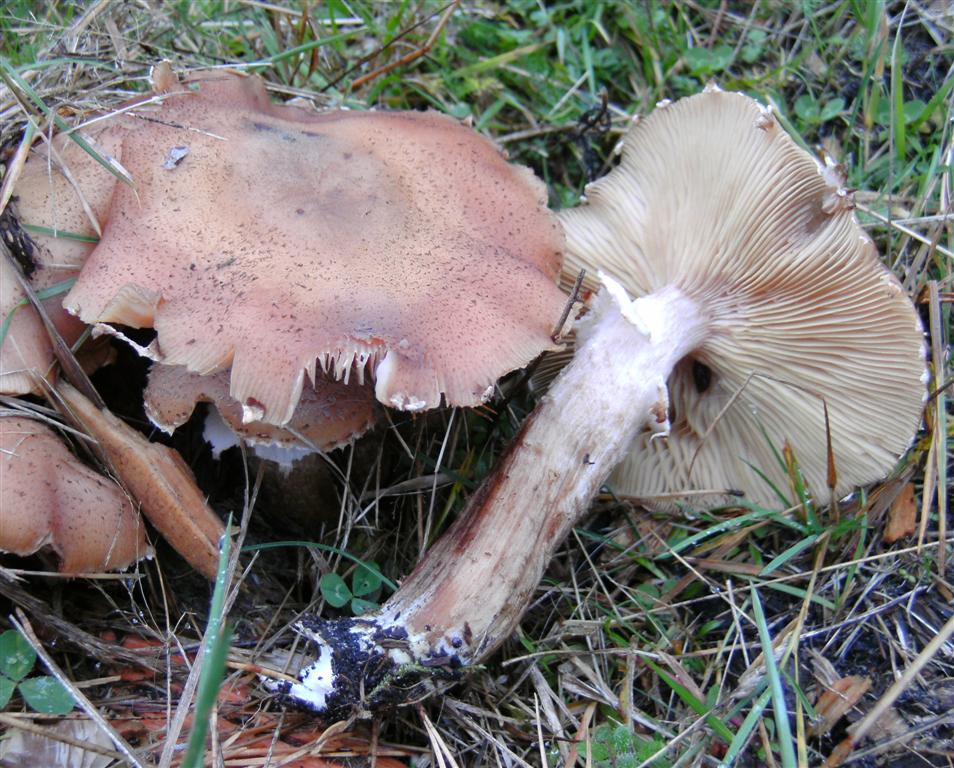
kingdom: Fungi
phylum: Basidiomycota
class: Agaricomycetes
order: Agaricales
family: Physalacriaceae
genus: Armillaria
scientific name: Armillaria ostoyae
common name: mørk honningsvamp
